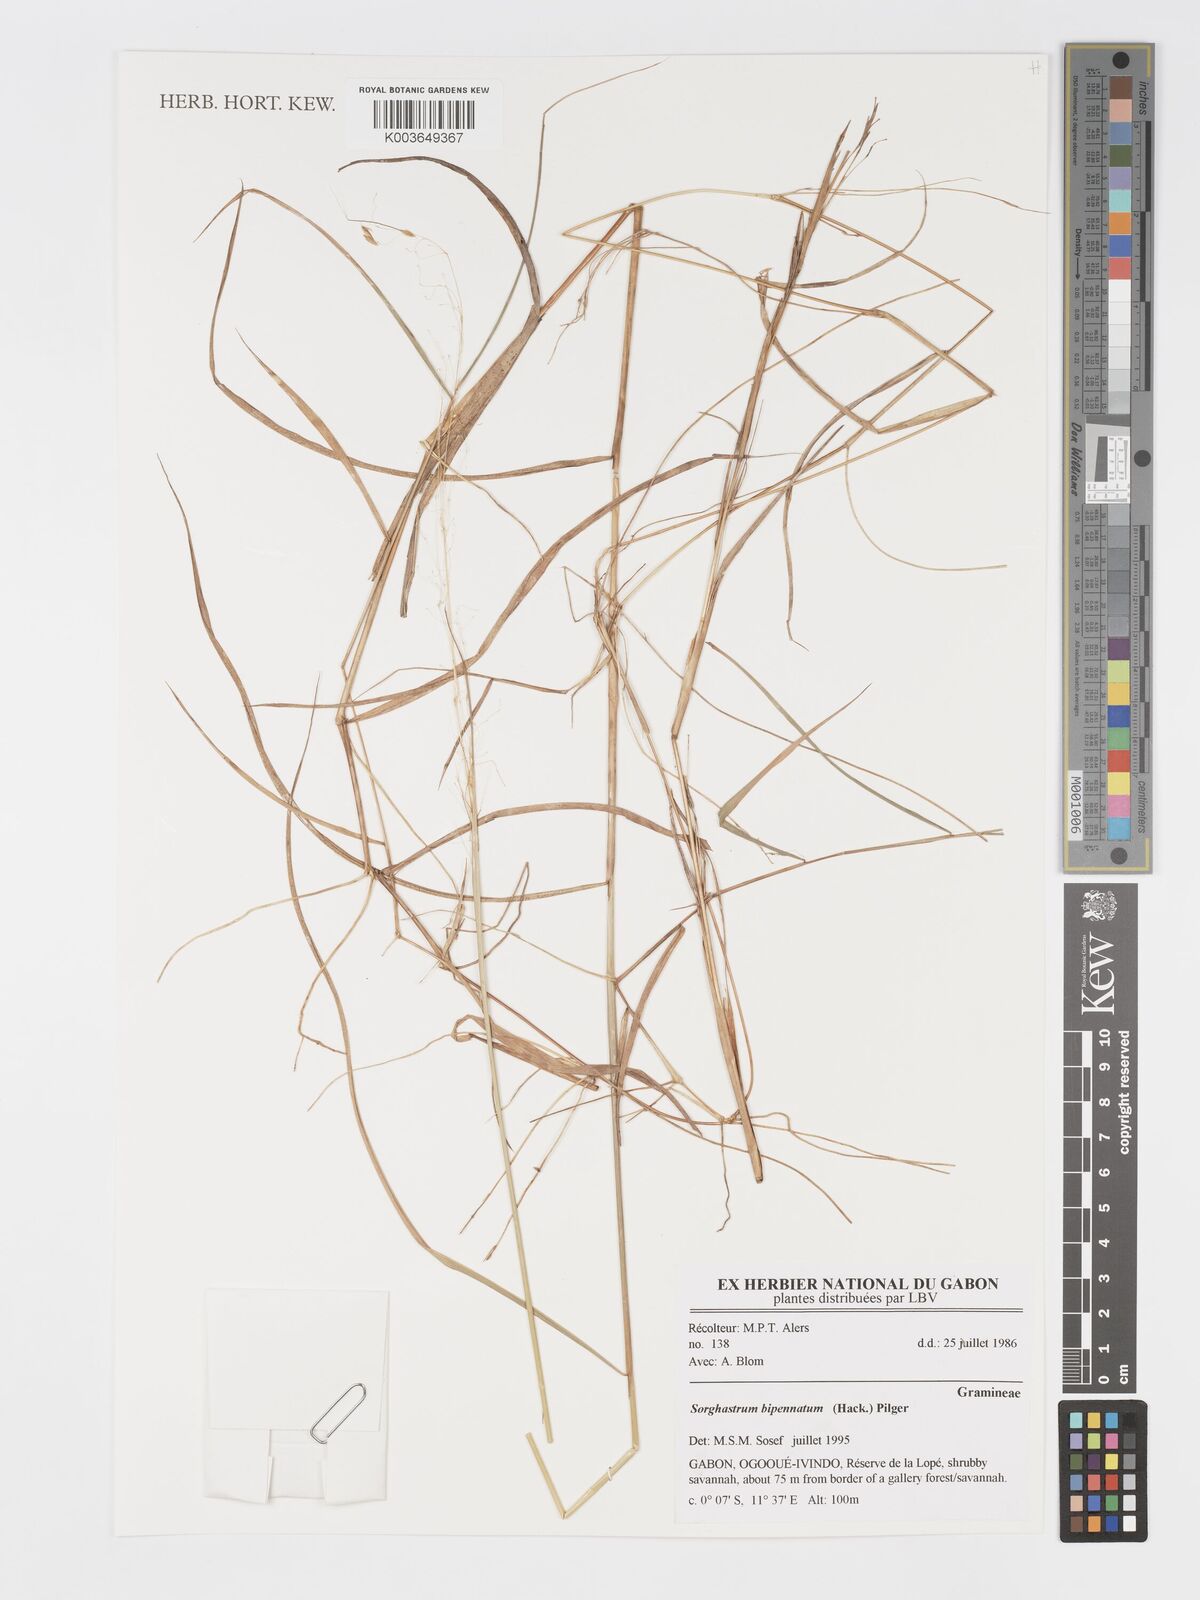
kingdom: Plantae
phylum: Tracheophyta
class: Liliopsida
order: Poales
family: Poaceae
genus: Sorghastrum
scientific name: Sorghastrum incompletum
